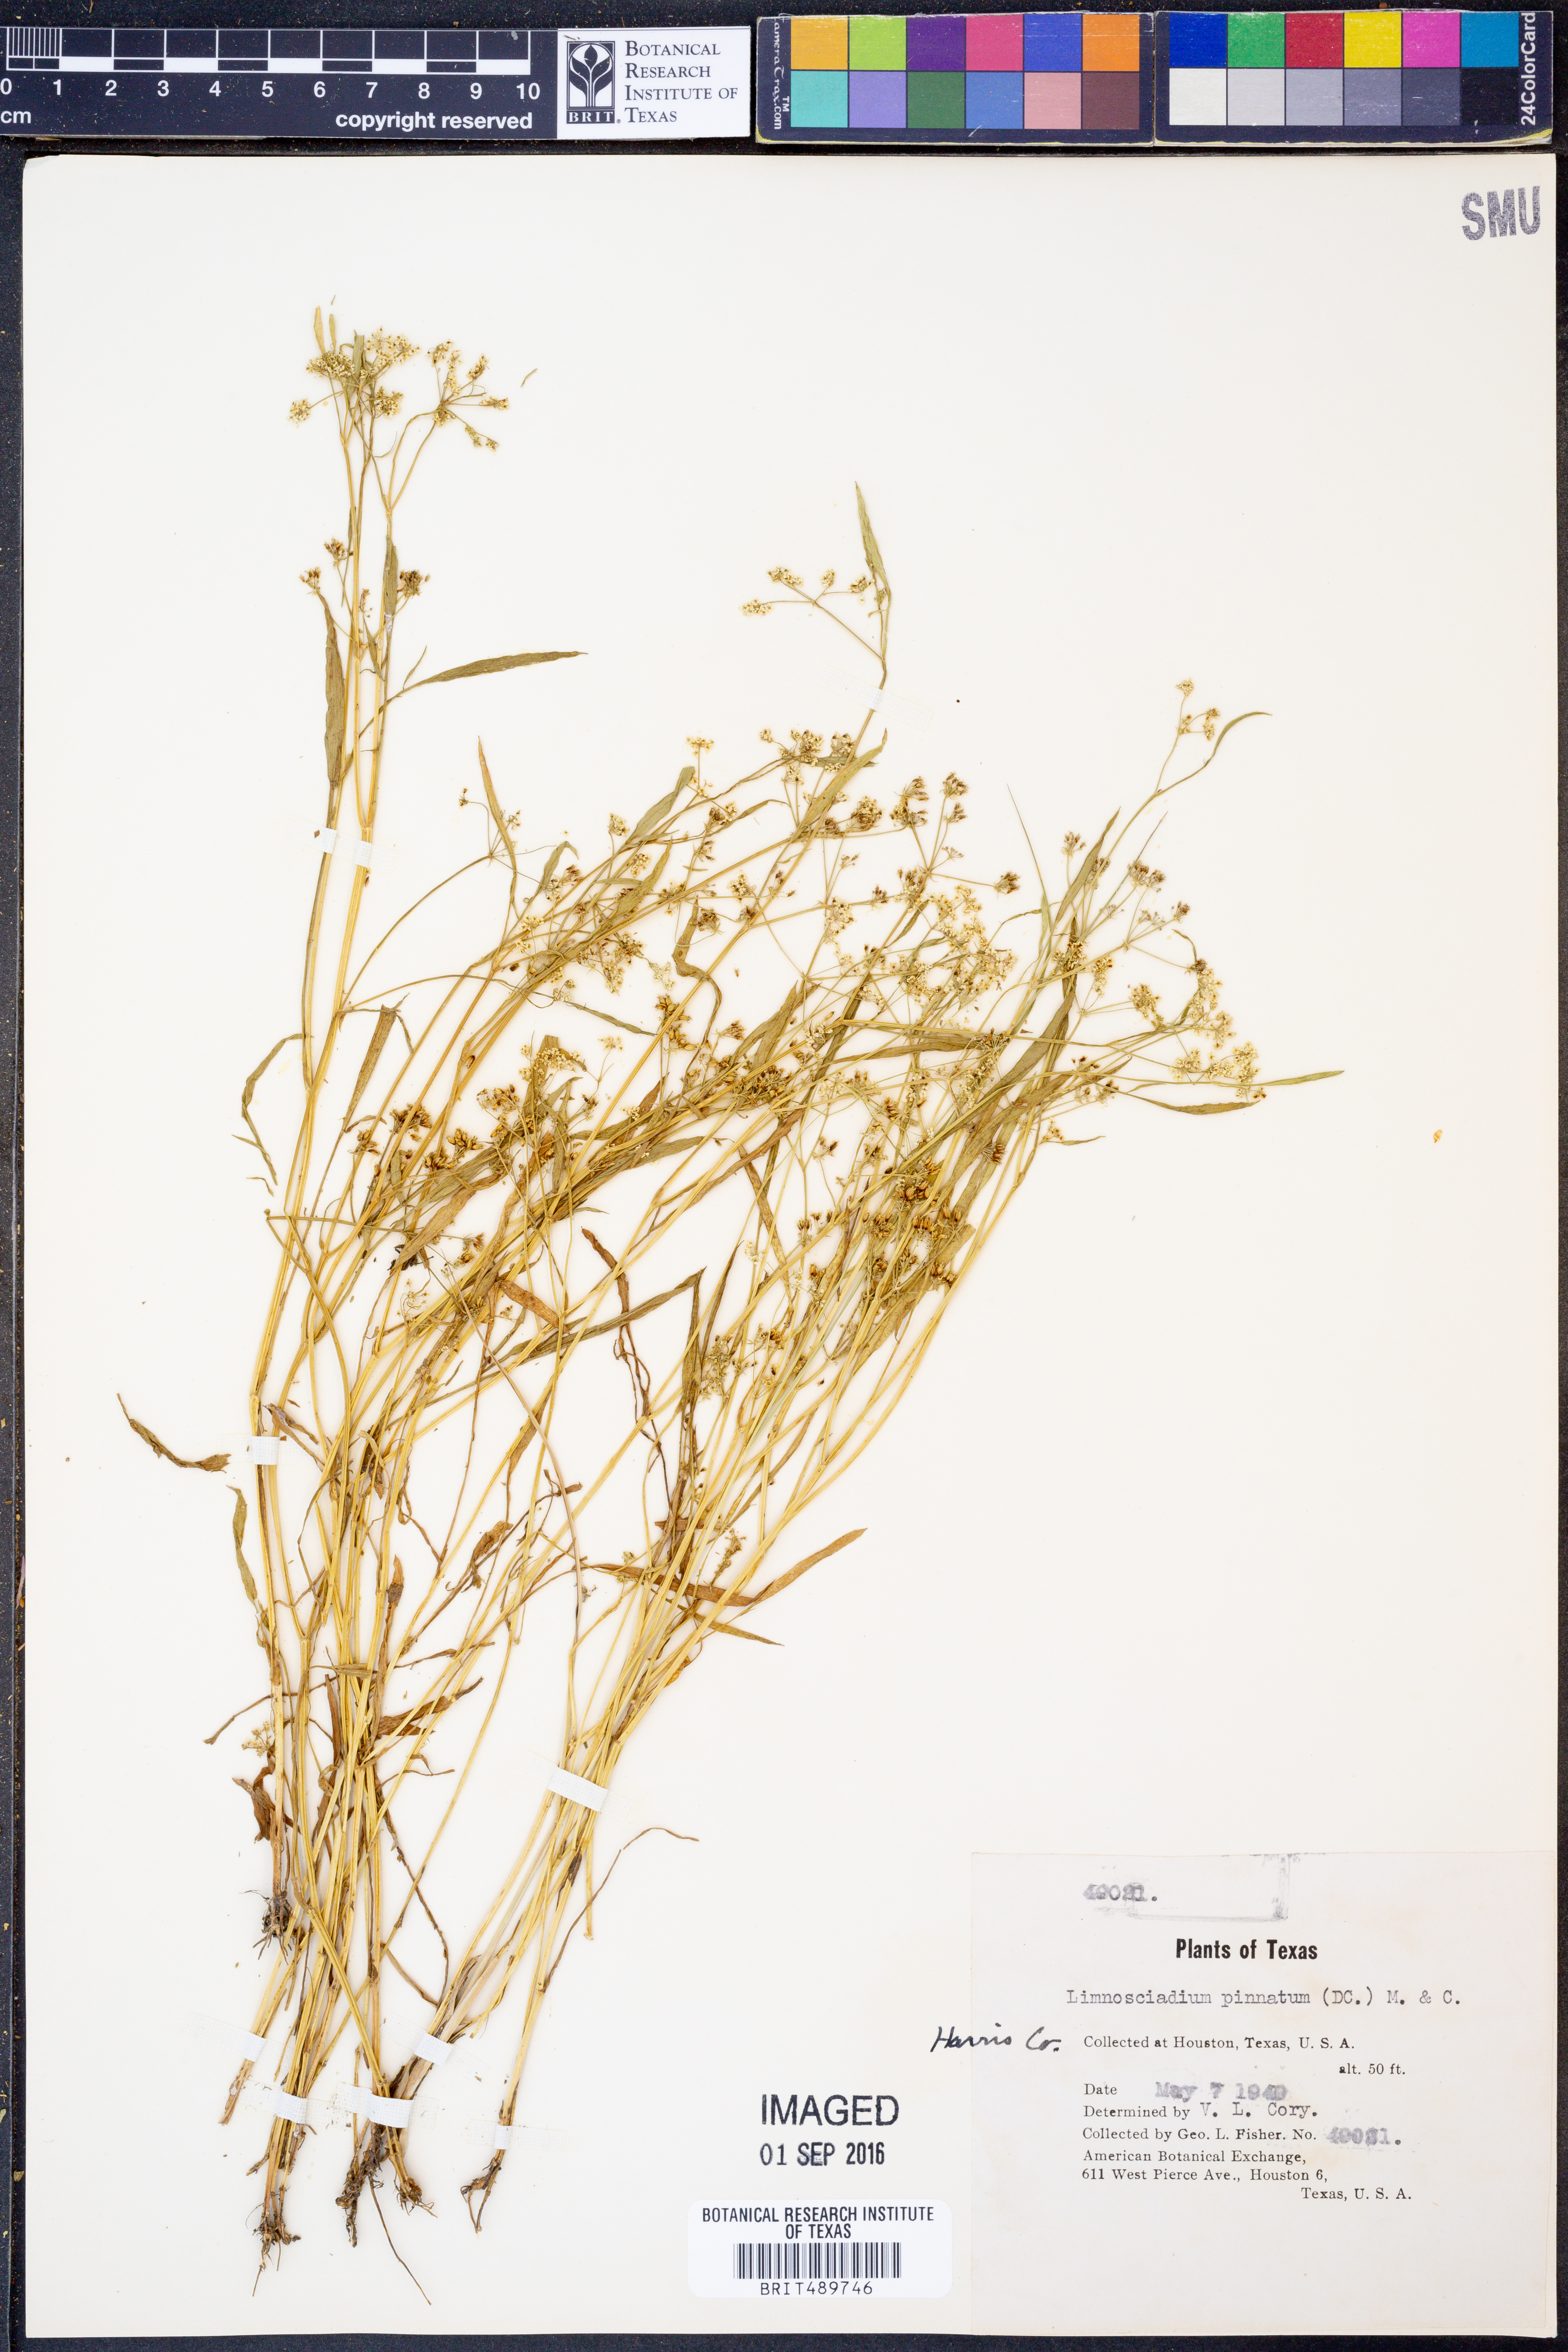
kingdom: Plantae
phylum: Tracheophyta
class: Magnoliopsida
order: Apiales
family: Apiaceae
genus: Limnosciadium
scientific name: Limnosciadium pinnatum
